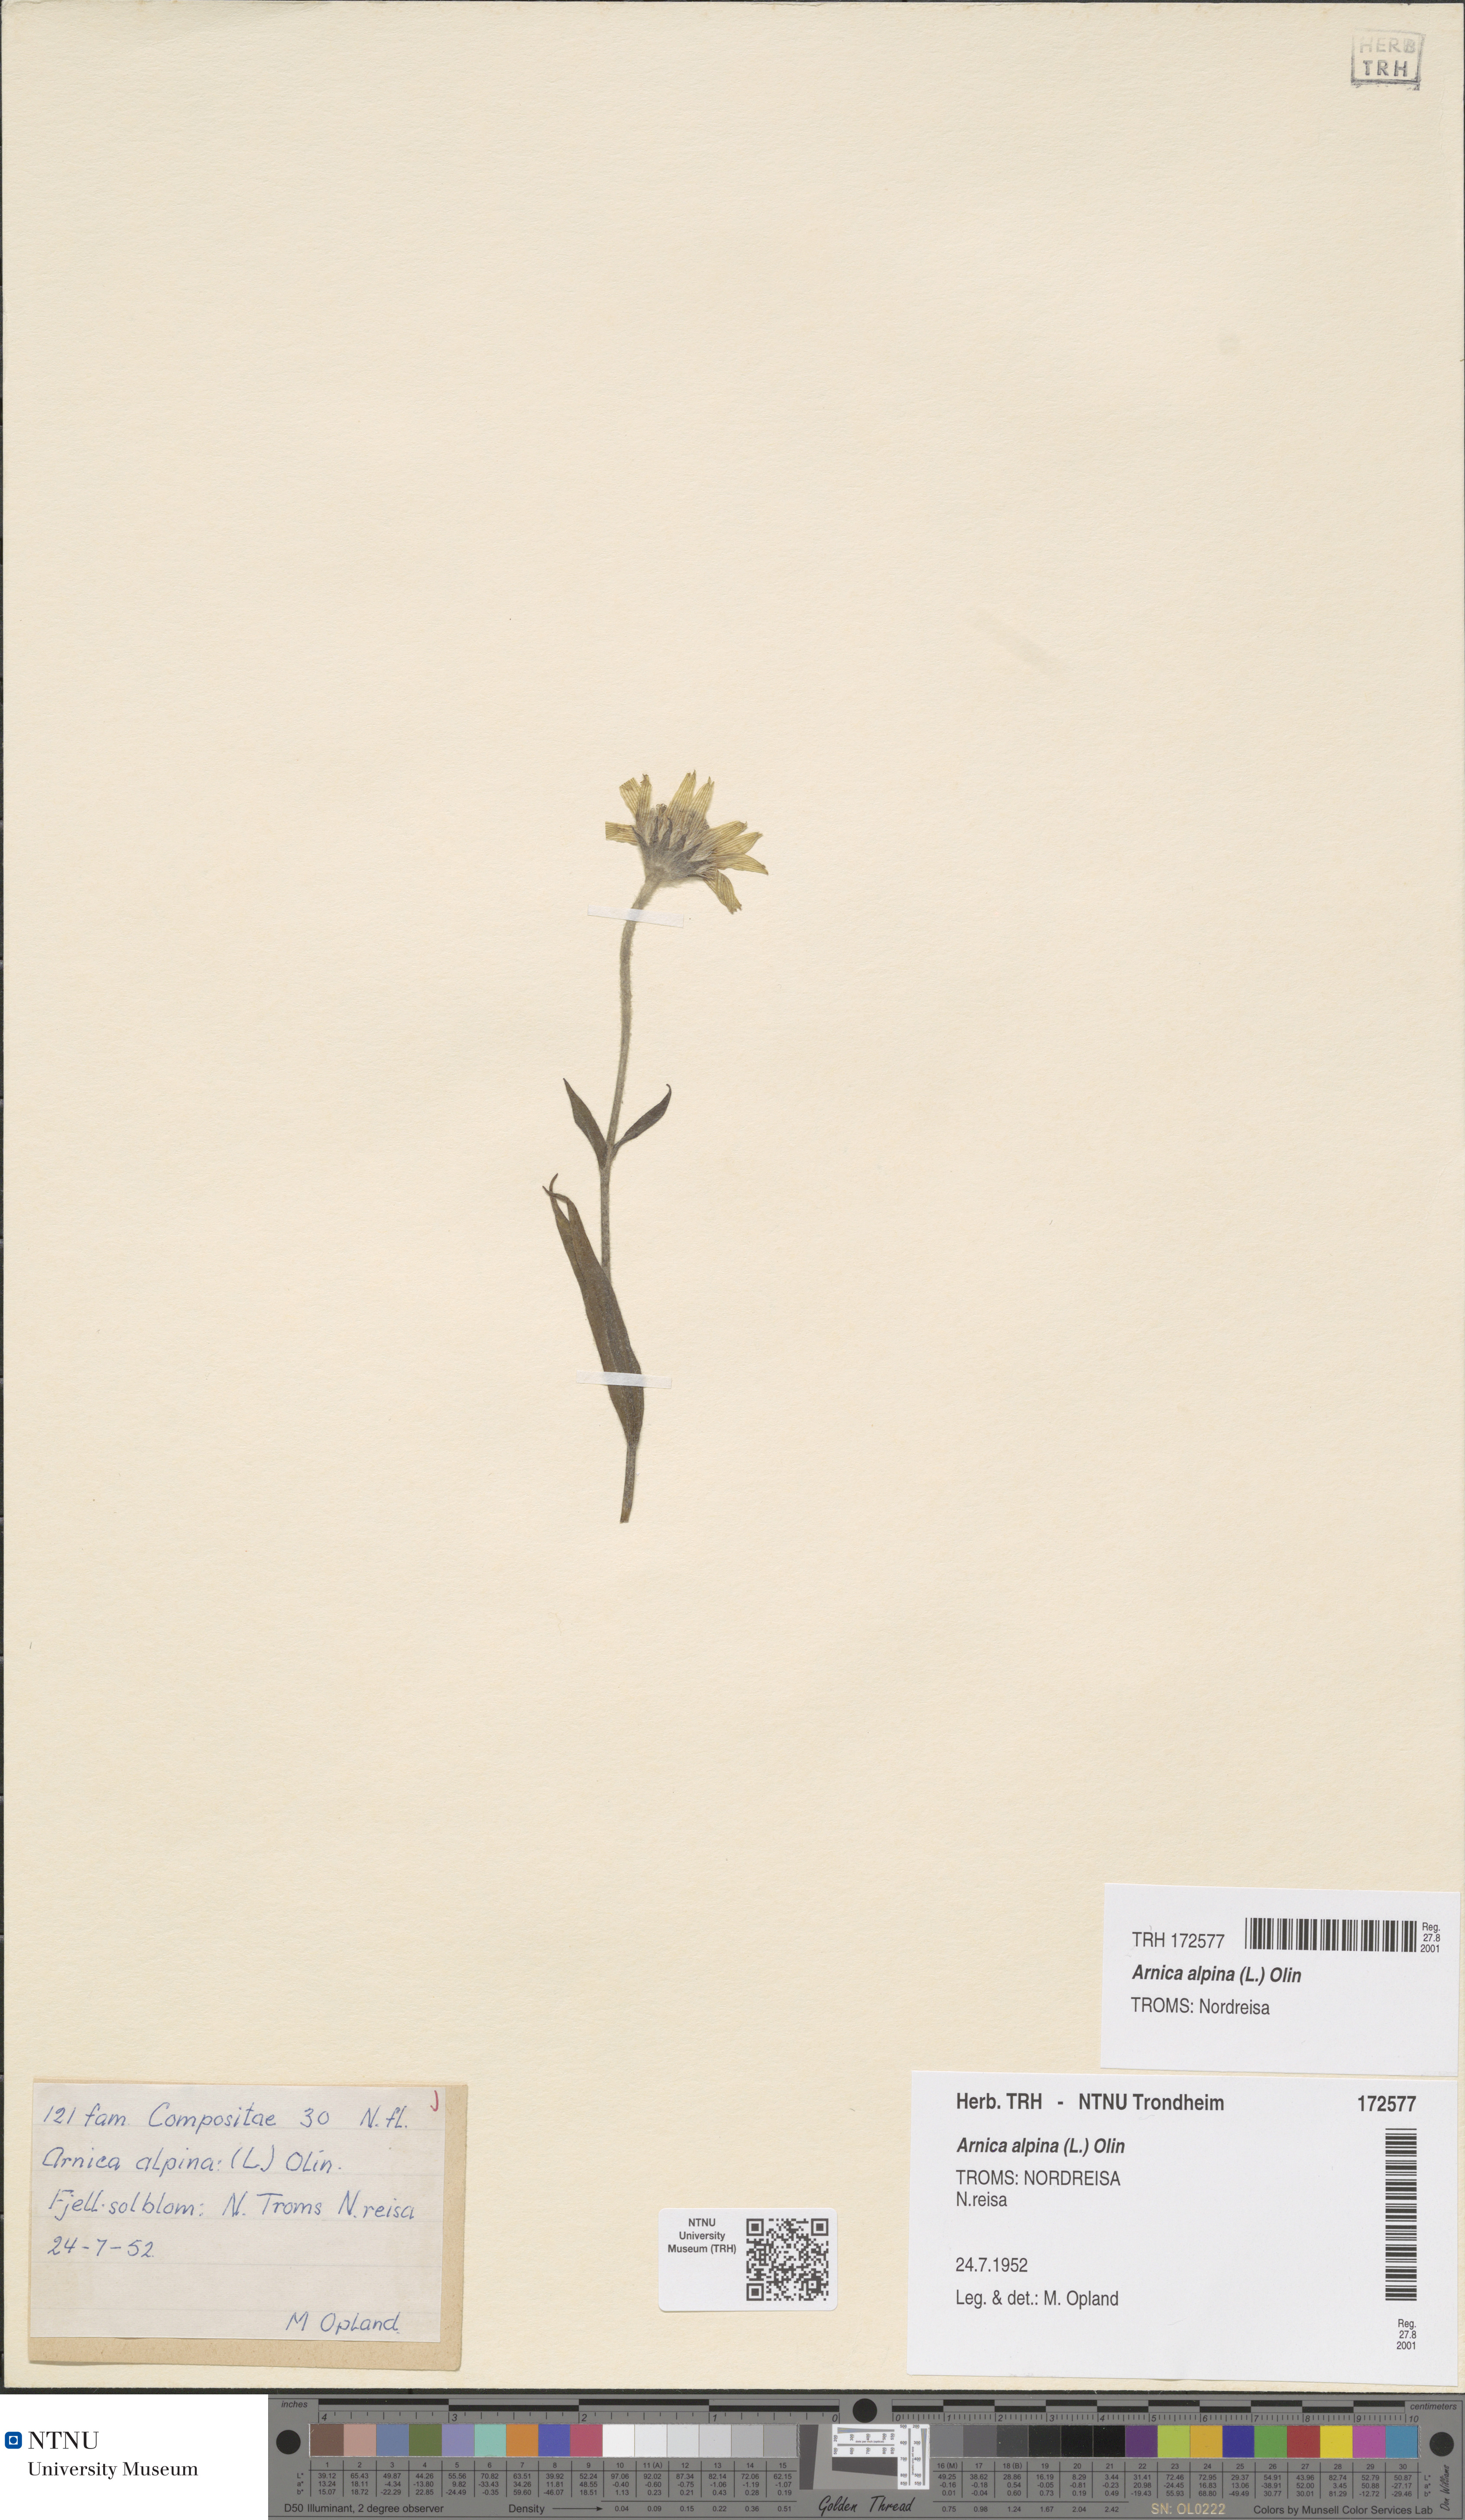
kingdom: Plantae
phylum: Tracheophyta
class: Magnoliopsida
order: Asterales
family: Asteraceae
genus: Arnica
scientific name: Arnica angustifolia
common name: Arctic arnica
